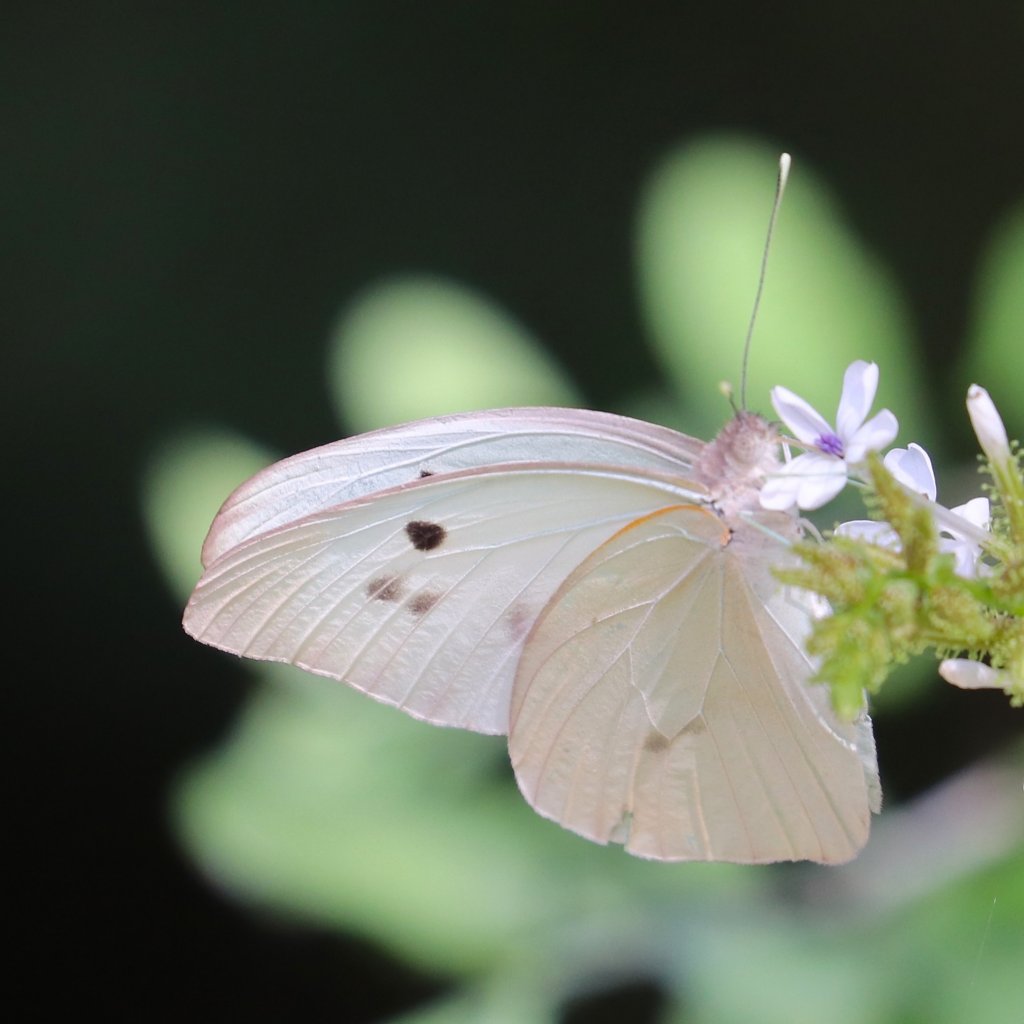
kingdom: Animalia
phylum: Arthropoda
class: Insecta
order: Lepidoptera
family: Pieridae
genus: Ganyra
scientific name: Ganyra josephina
